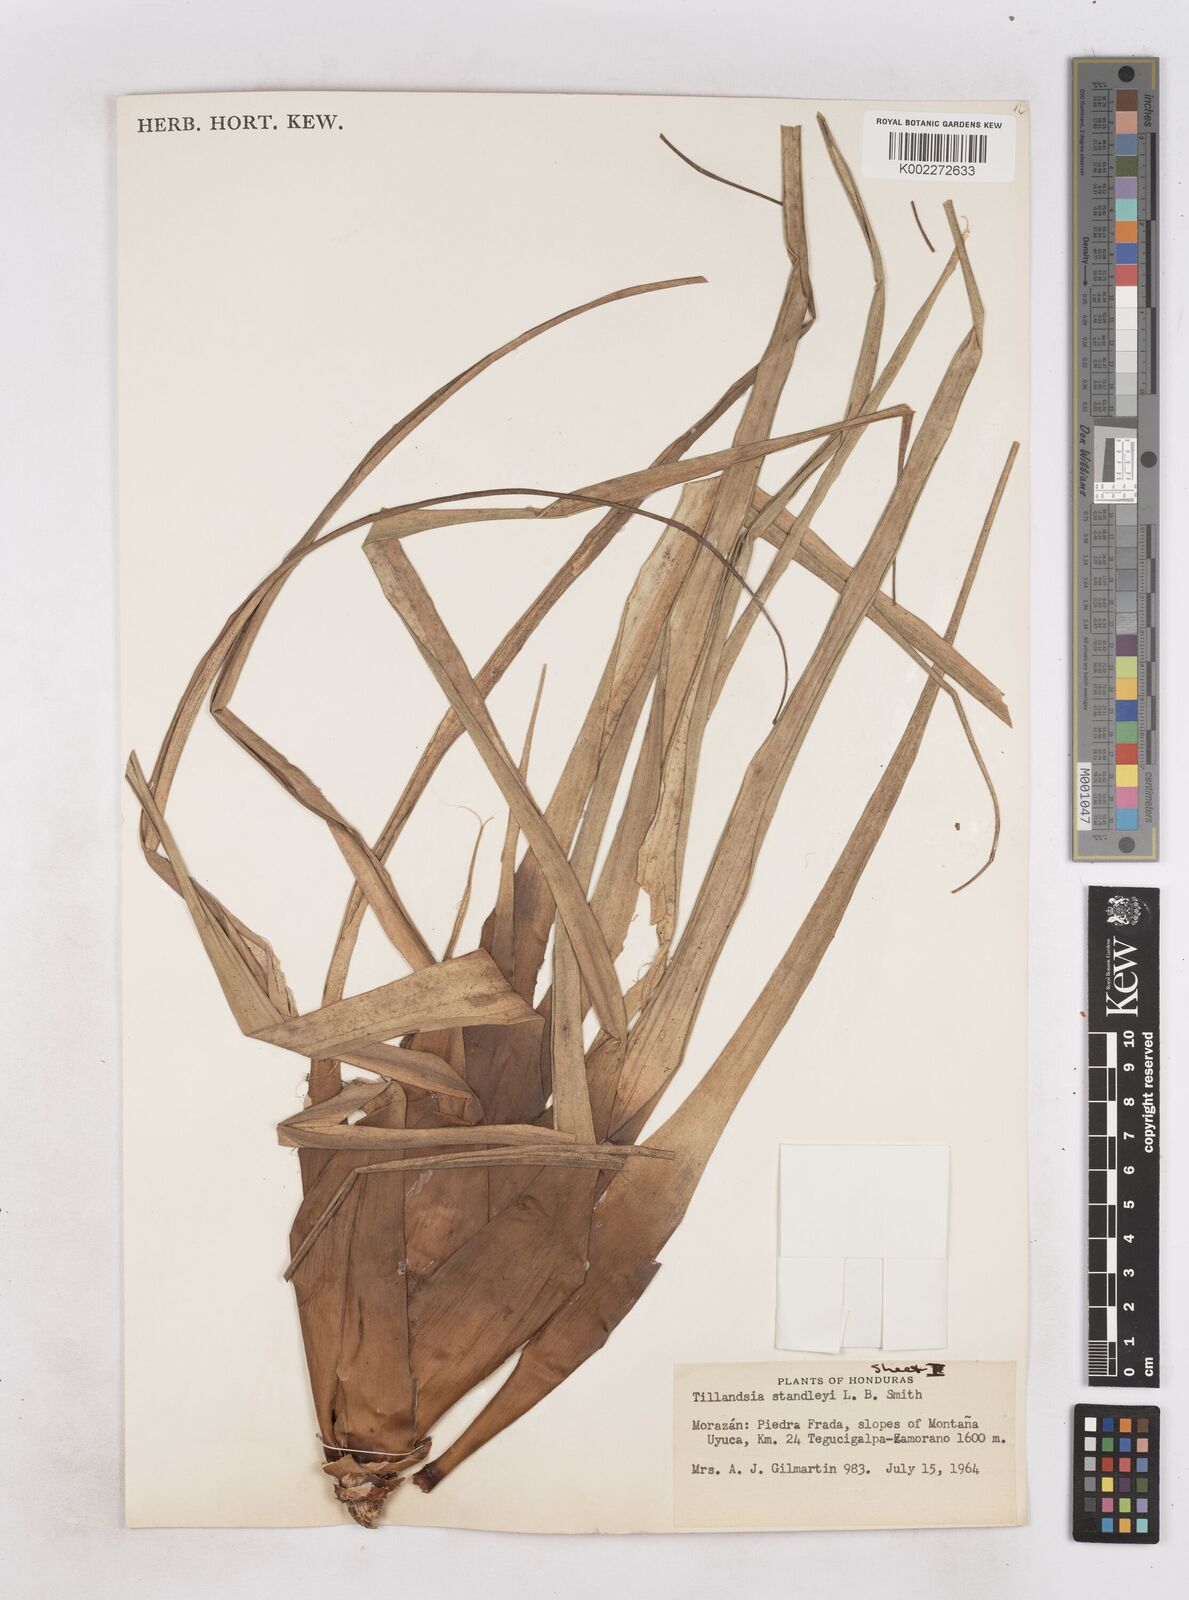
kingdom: Plantae
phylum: Tracheophyta
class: Liliopsida
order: Poales
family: Bromeliaceae
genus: Tillandsia
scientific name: Tillandsia standleyi
